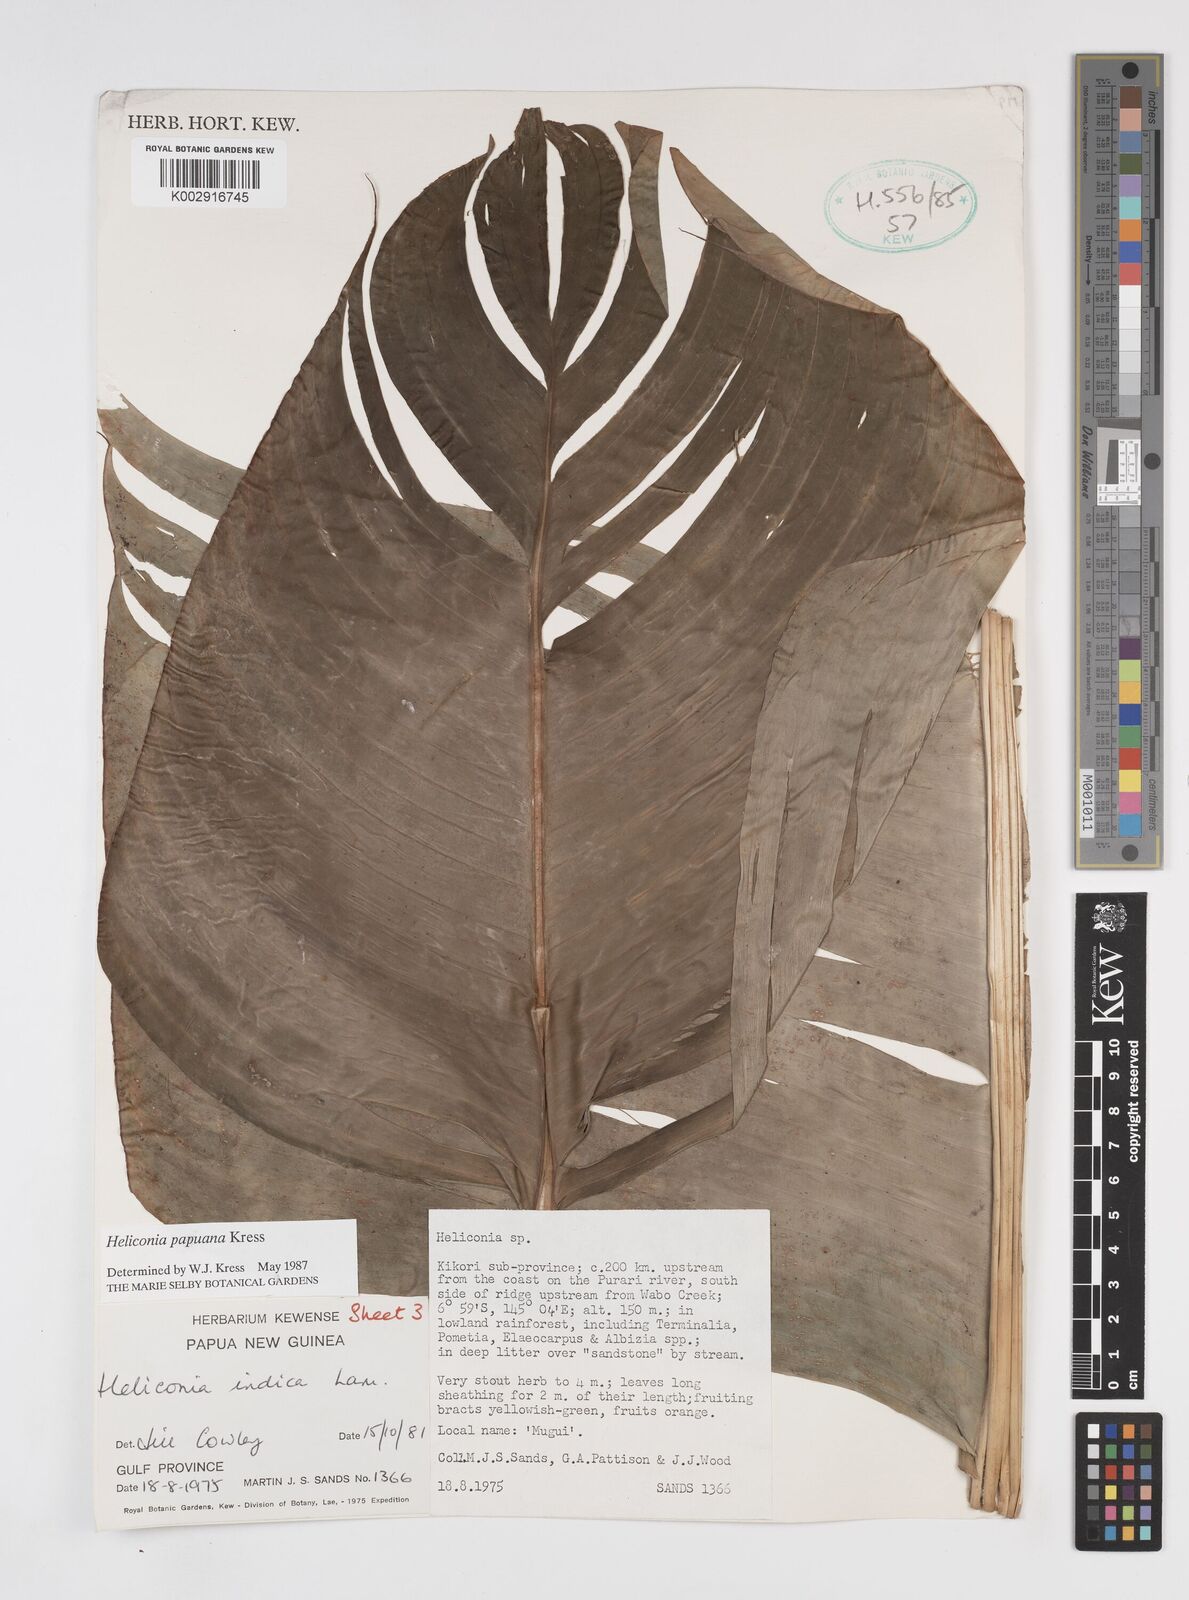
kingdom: Plantae
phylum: Tracheophyta
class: Liliopsida
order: Zingiberales
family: Heliconiaceae
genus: Heliconia
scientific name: Heliconia papuana
